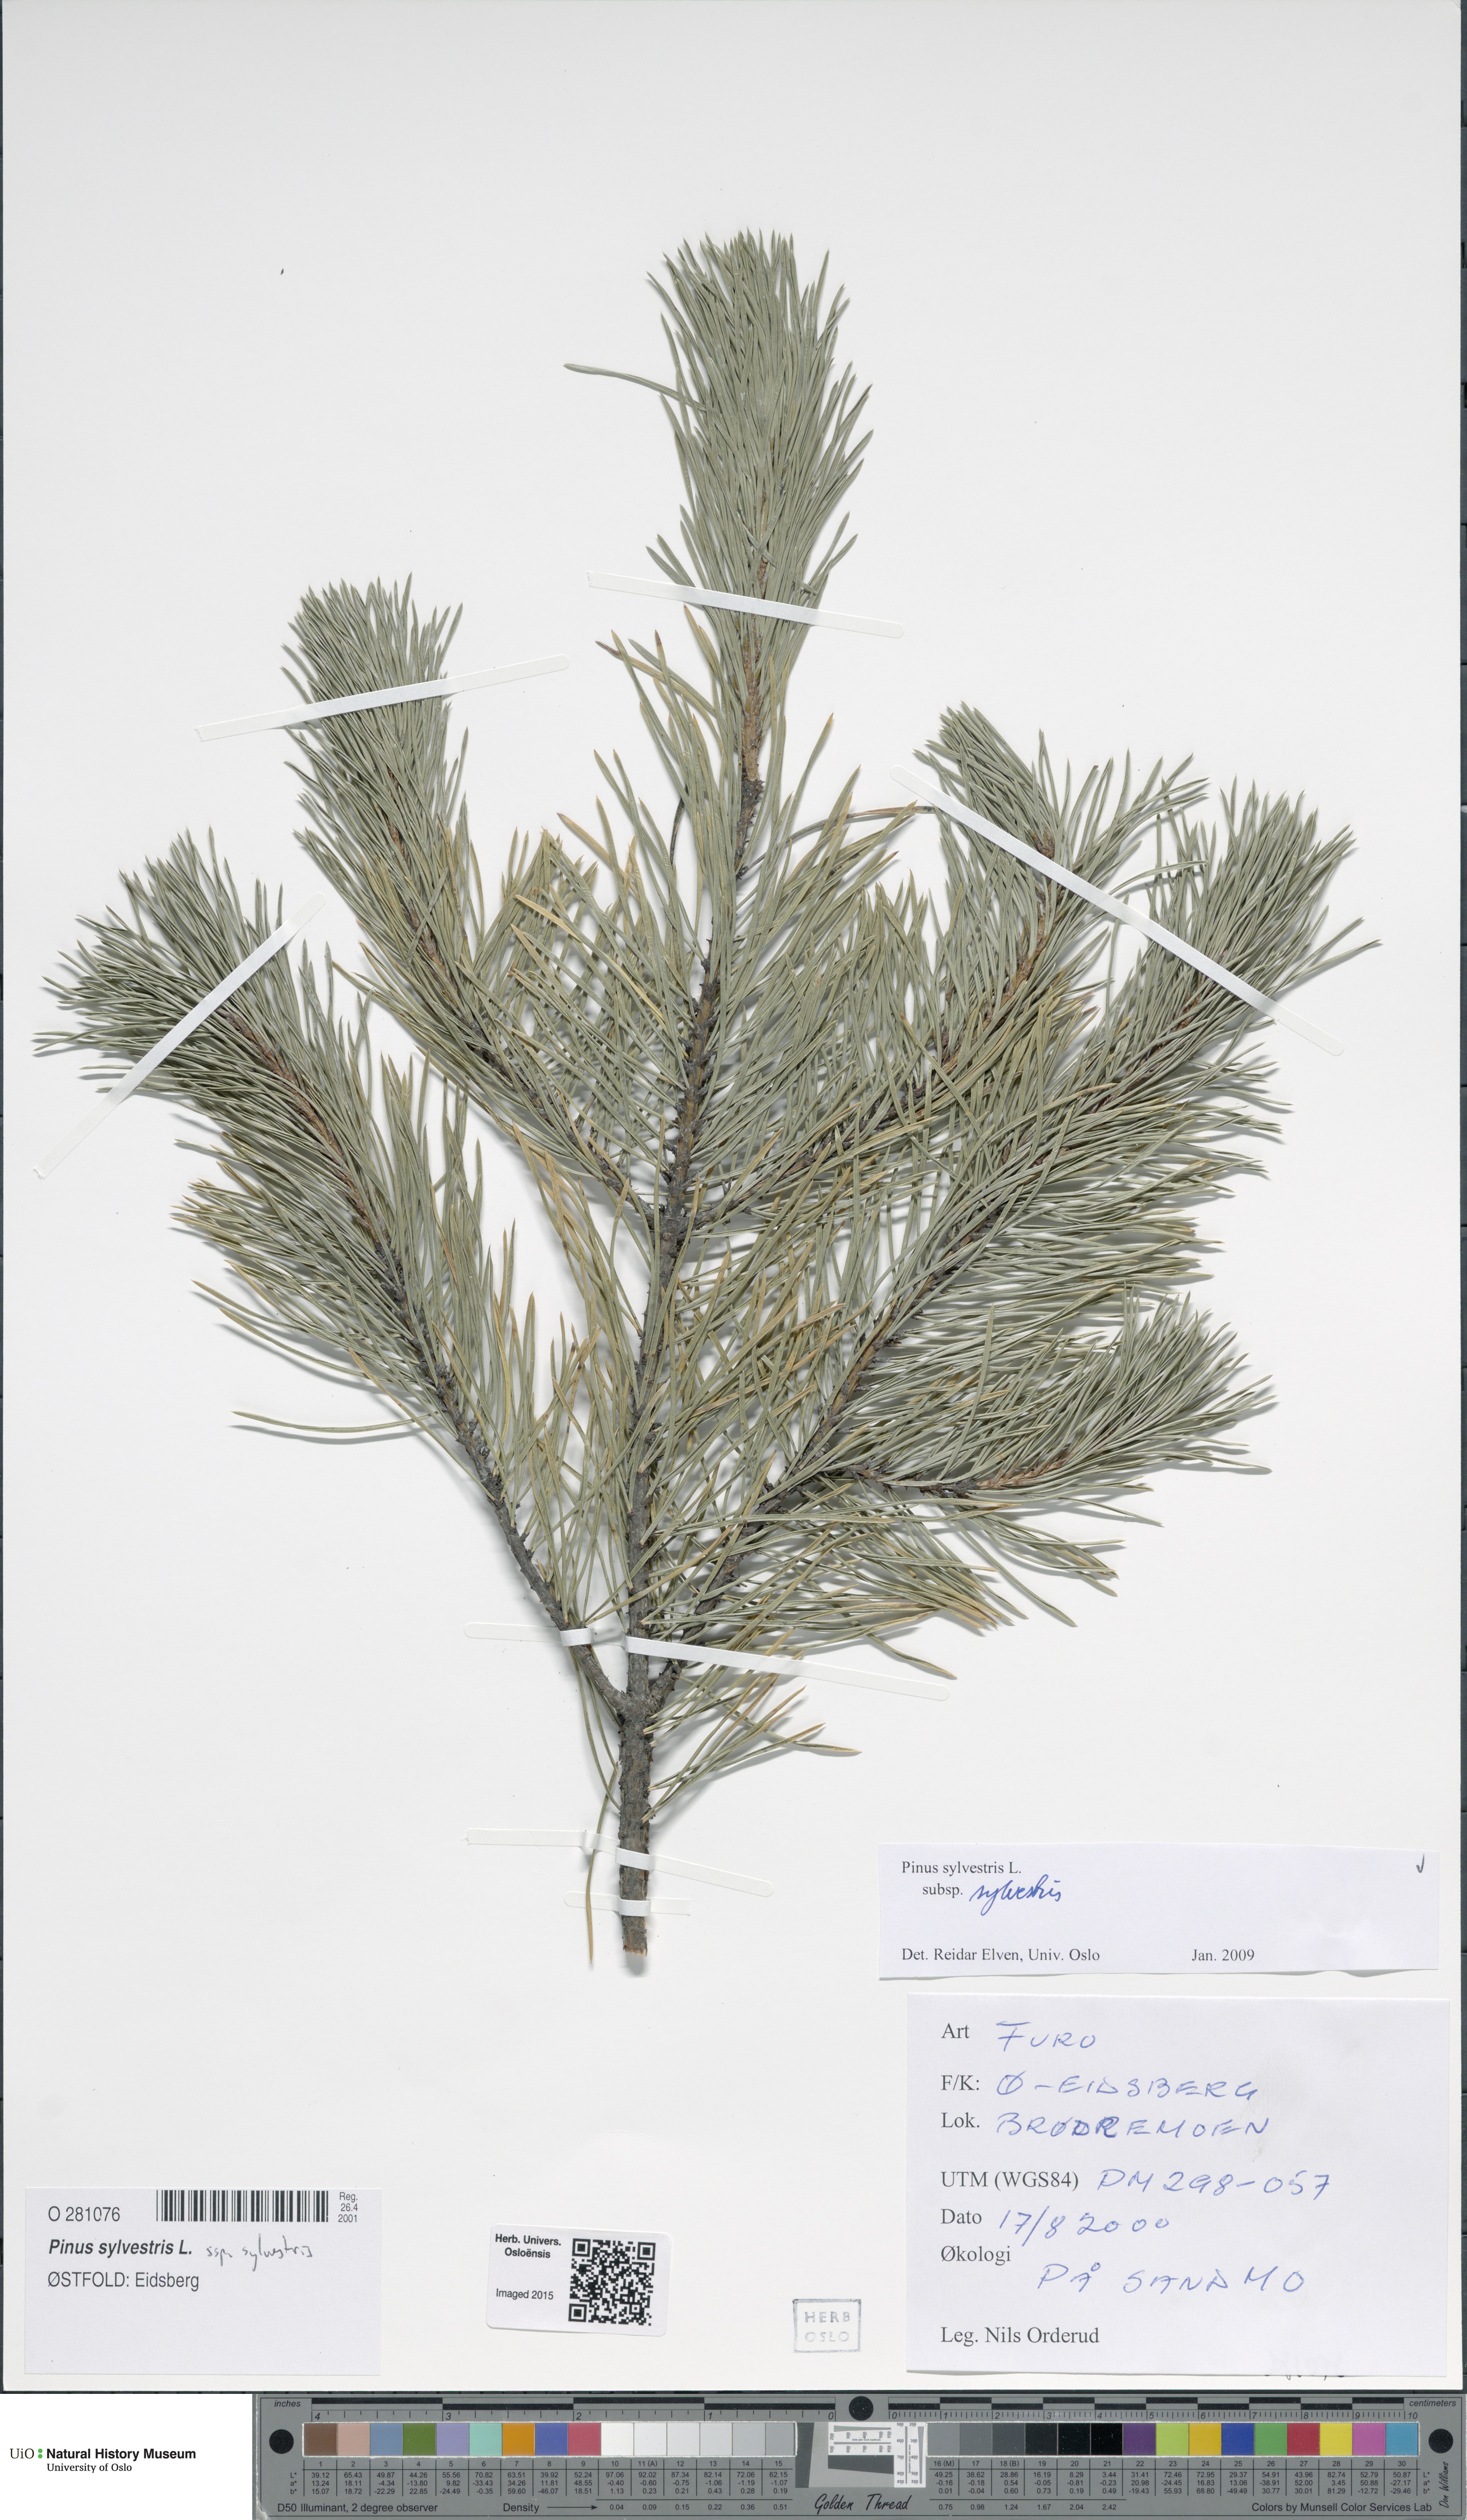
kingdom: Plantae
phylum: Tracheophyta
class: Pinopsida
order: Pinales
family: Pinaceae
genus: Pinus
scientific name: Pinus sylvestris
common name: Scots pine
